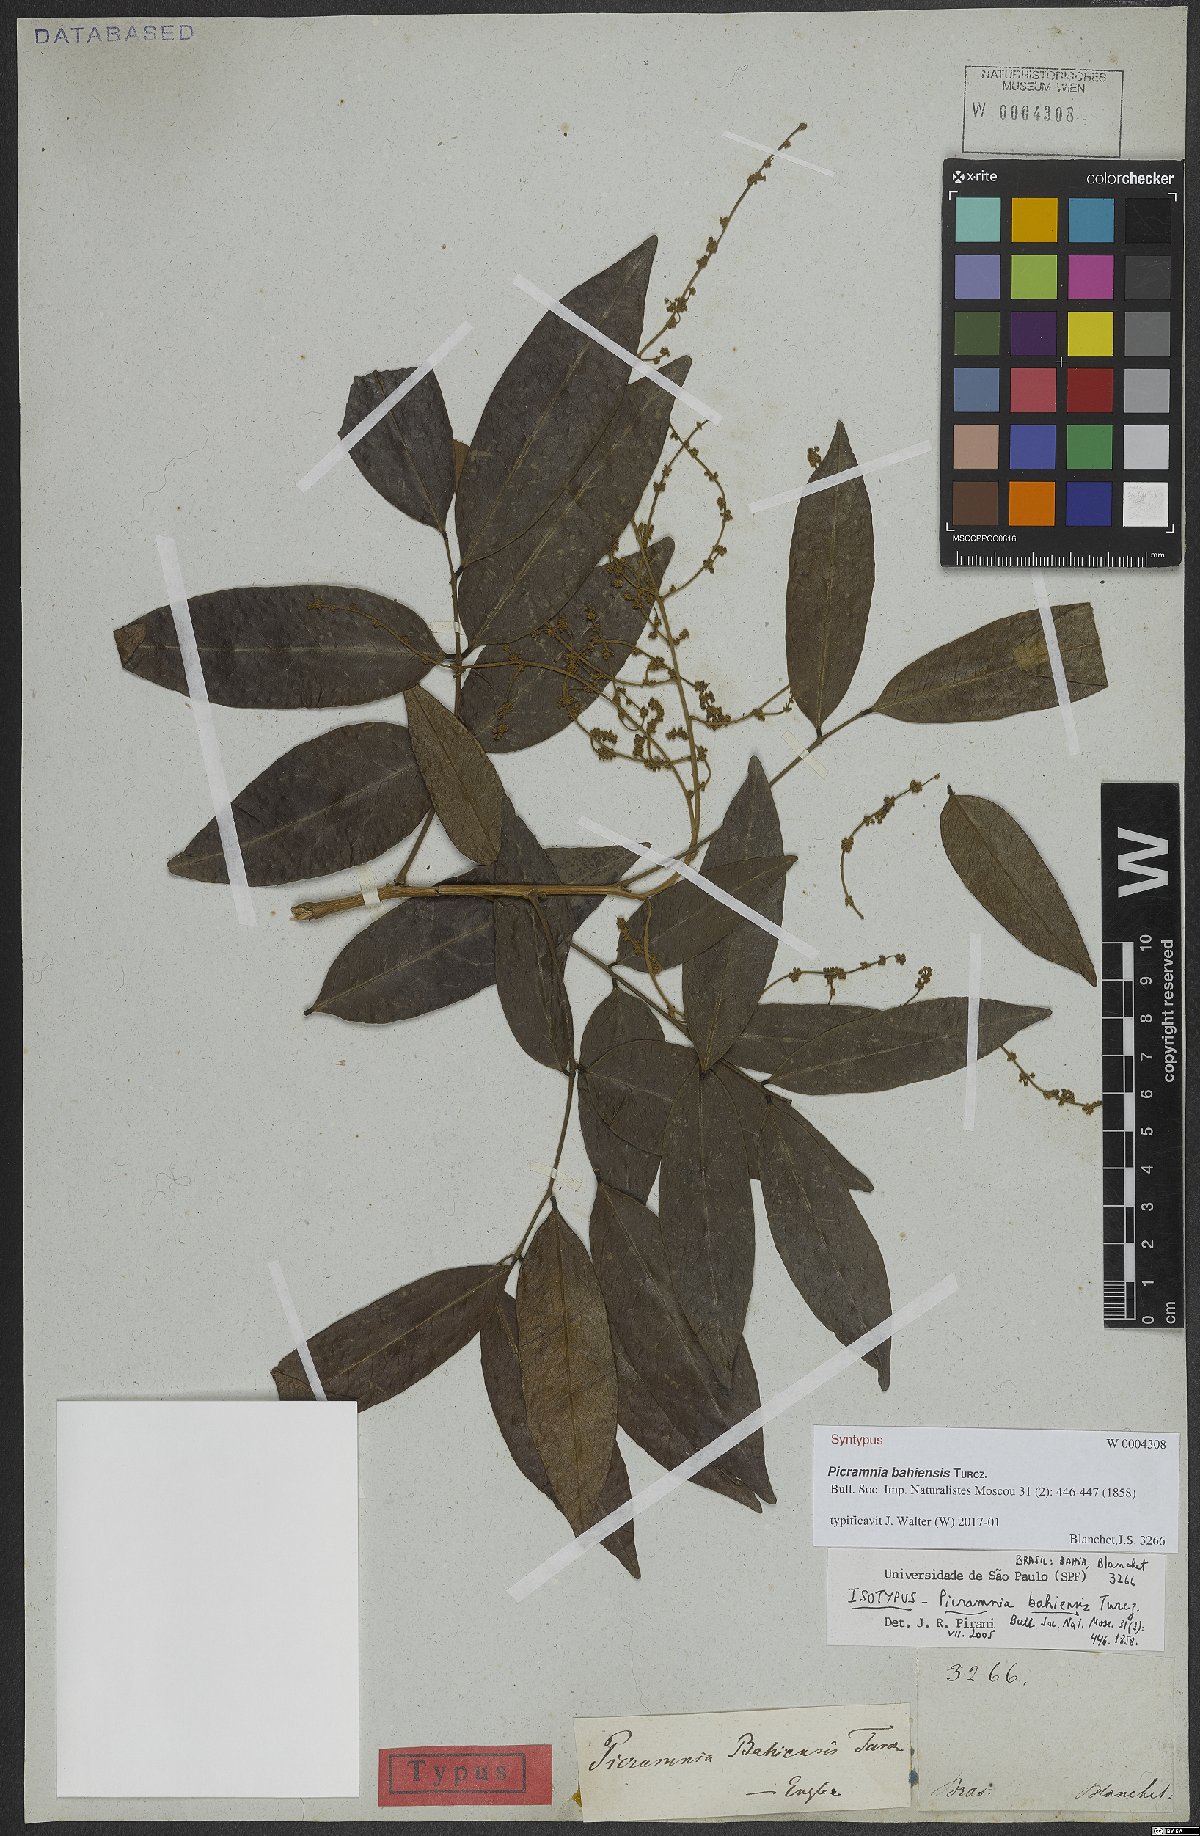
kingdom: Plantae
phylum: Tracheophyta
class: Magnoliopsida
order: Picramniales
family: Picramniaceae
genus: Picramnia
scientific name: Picramnia bahiensis
